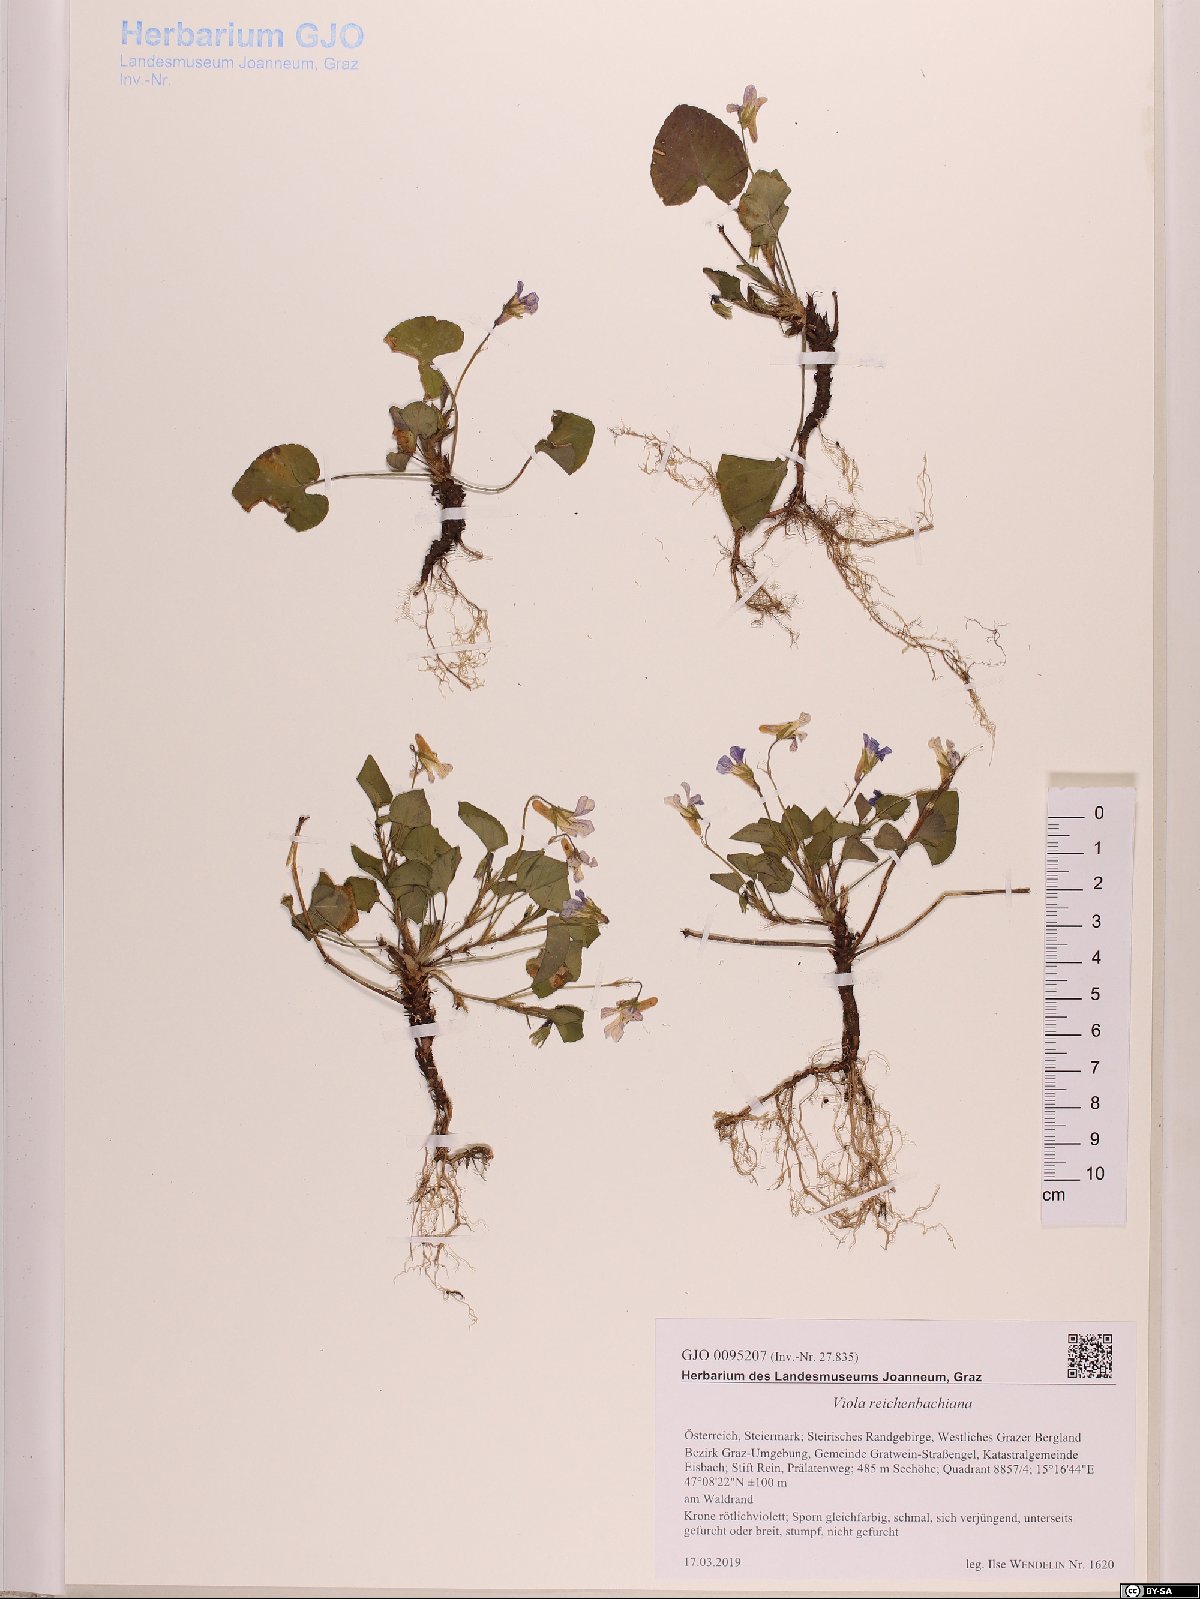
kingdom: Plantae
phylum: Tracheophyta
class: Magnoliopsida
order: Malpighiales
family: Violaceae
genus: Viola
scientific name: Viola reichenbachiana
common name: Early dog-violet
